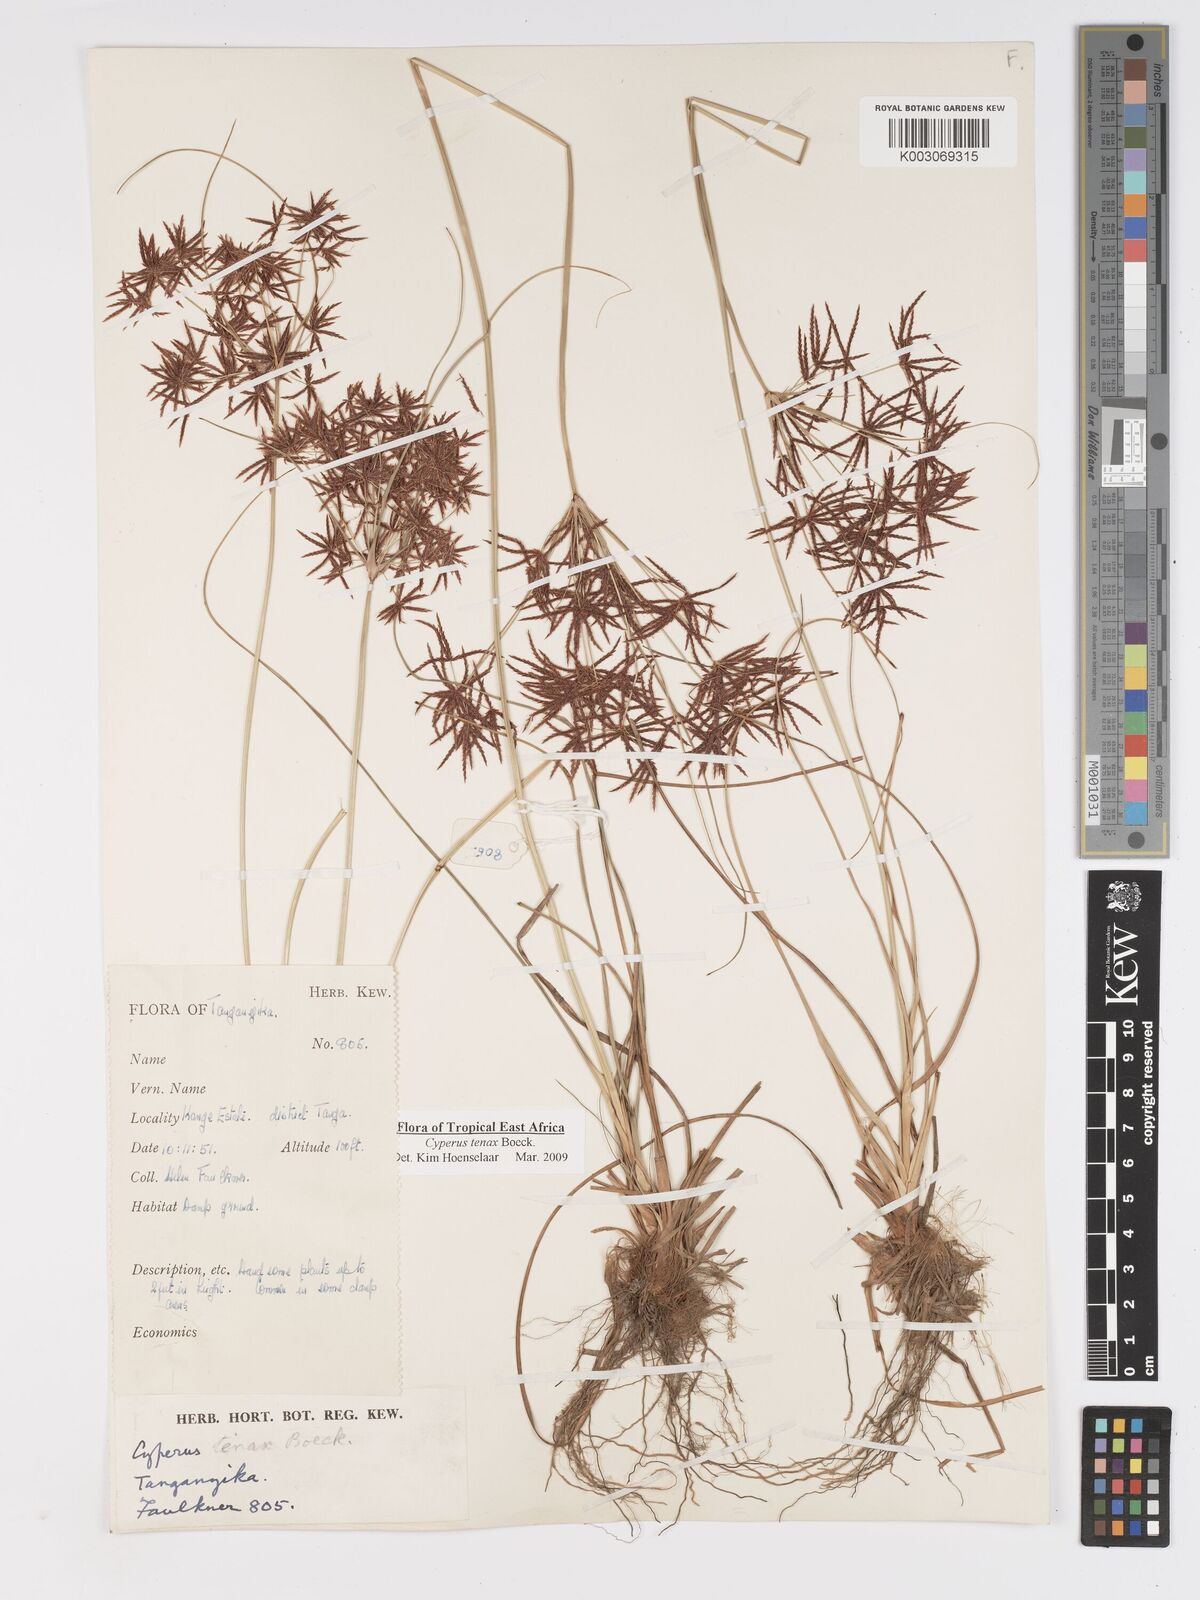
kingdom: Plantae
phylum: Tracheophyta
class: Liliopsida
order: Poales
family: Cyperaceae
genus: Cyperus
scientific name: Cyperus tenax
